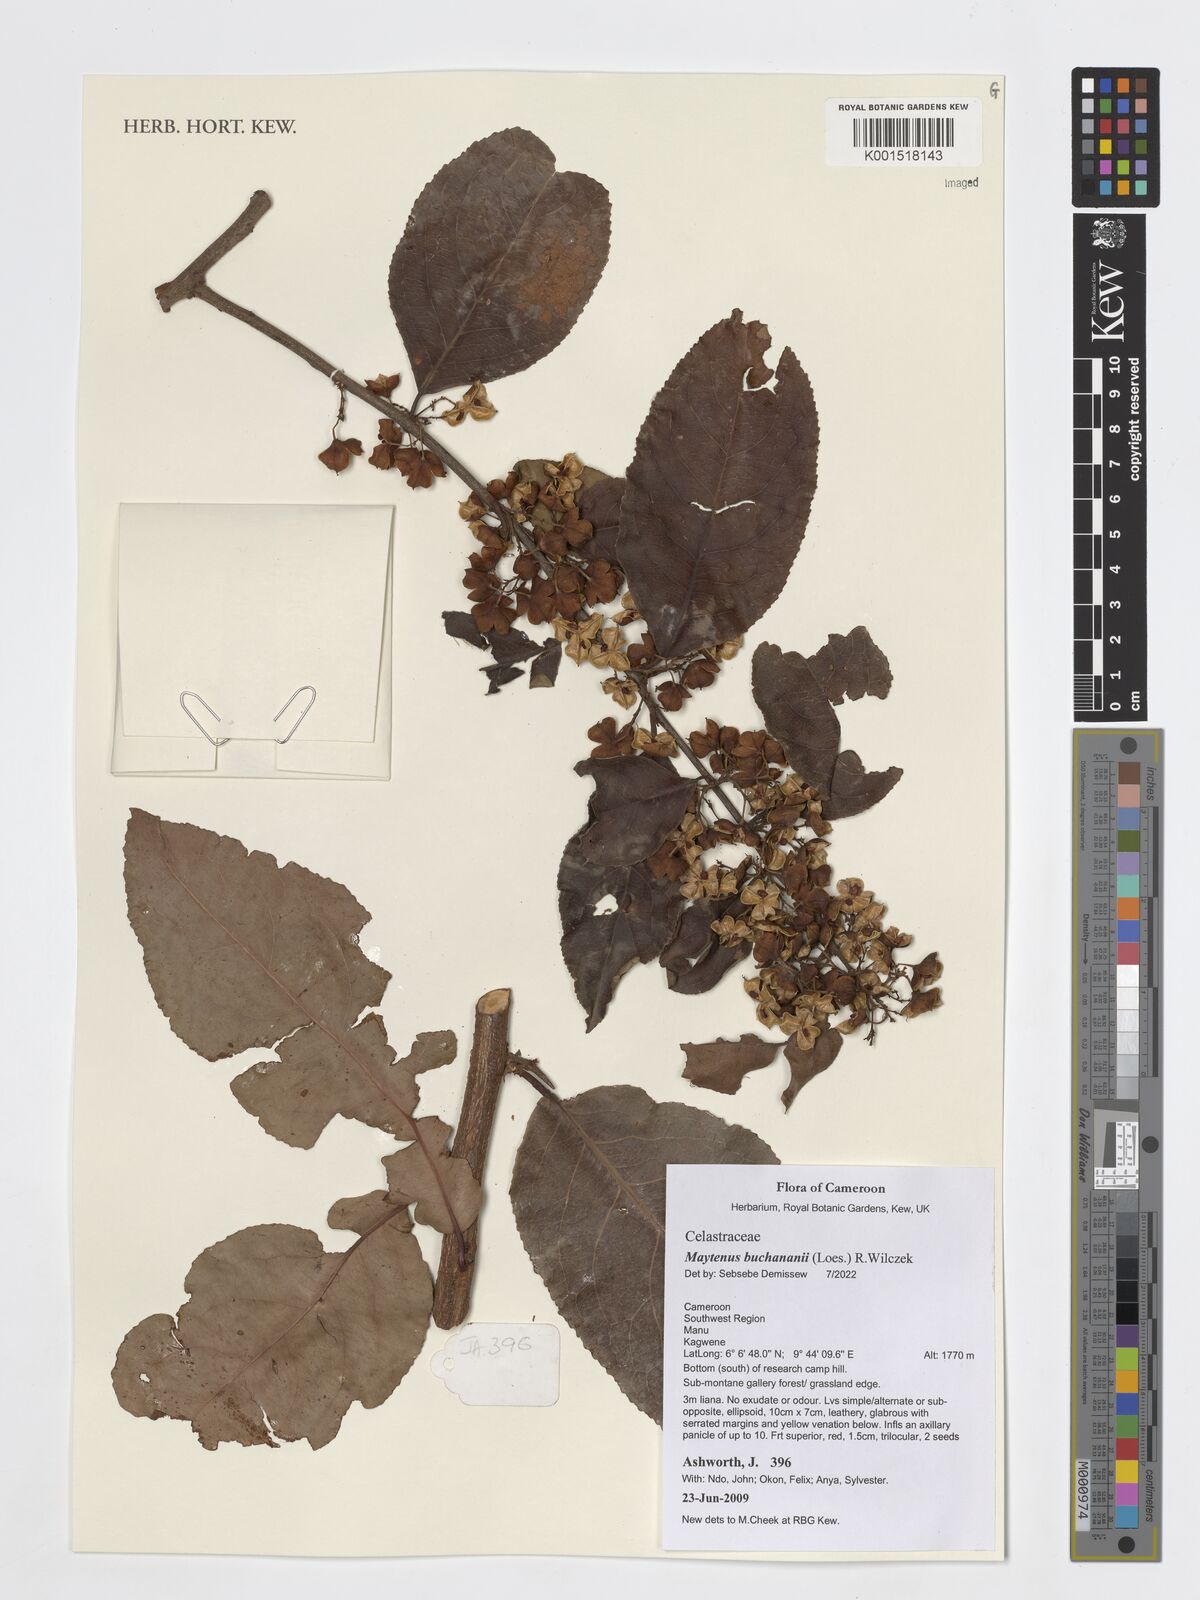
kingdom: Plantae
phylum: Tracheophyta
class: Magnoliopsida
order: Celastrales
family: Celastraceae
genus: Gymnosporia
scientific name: Gymnosporia buchananii
